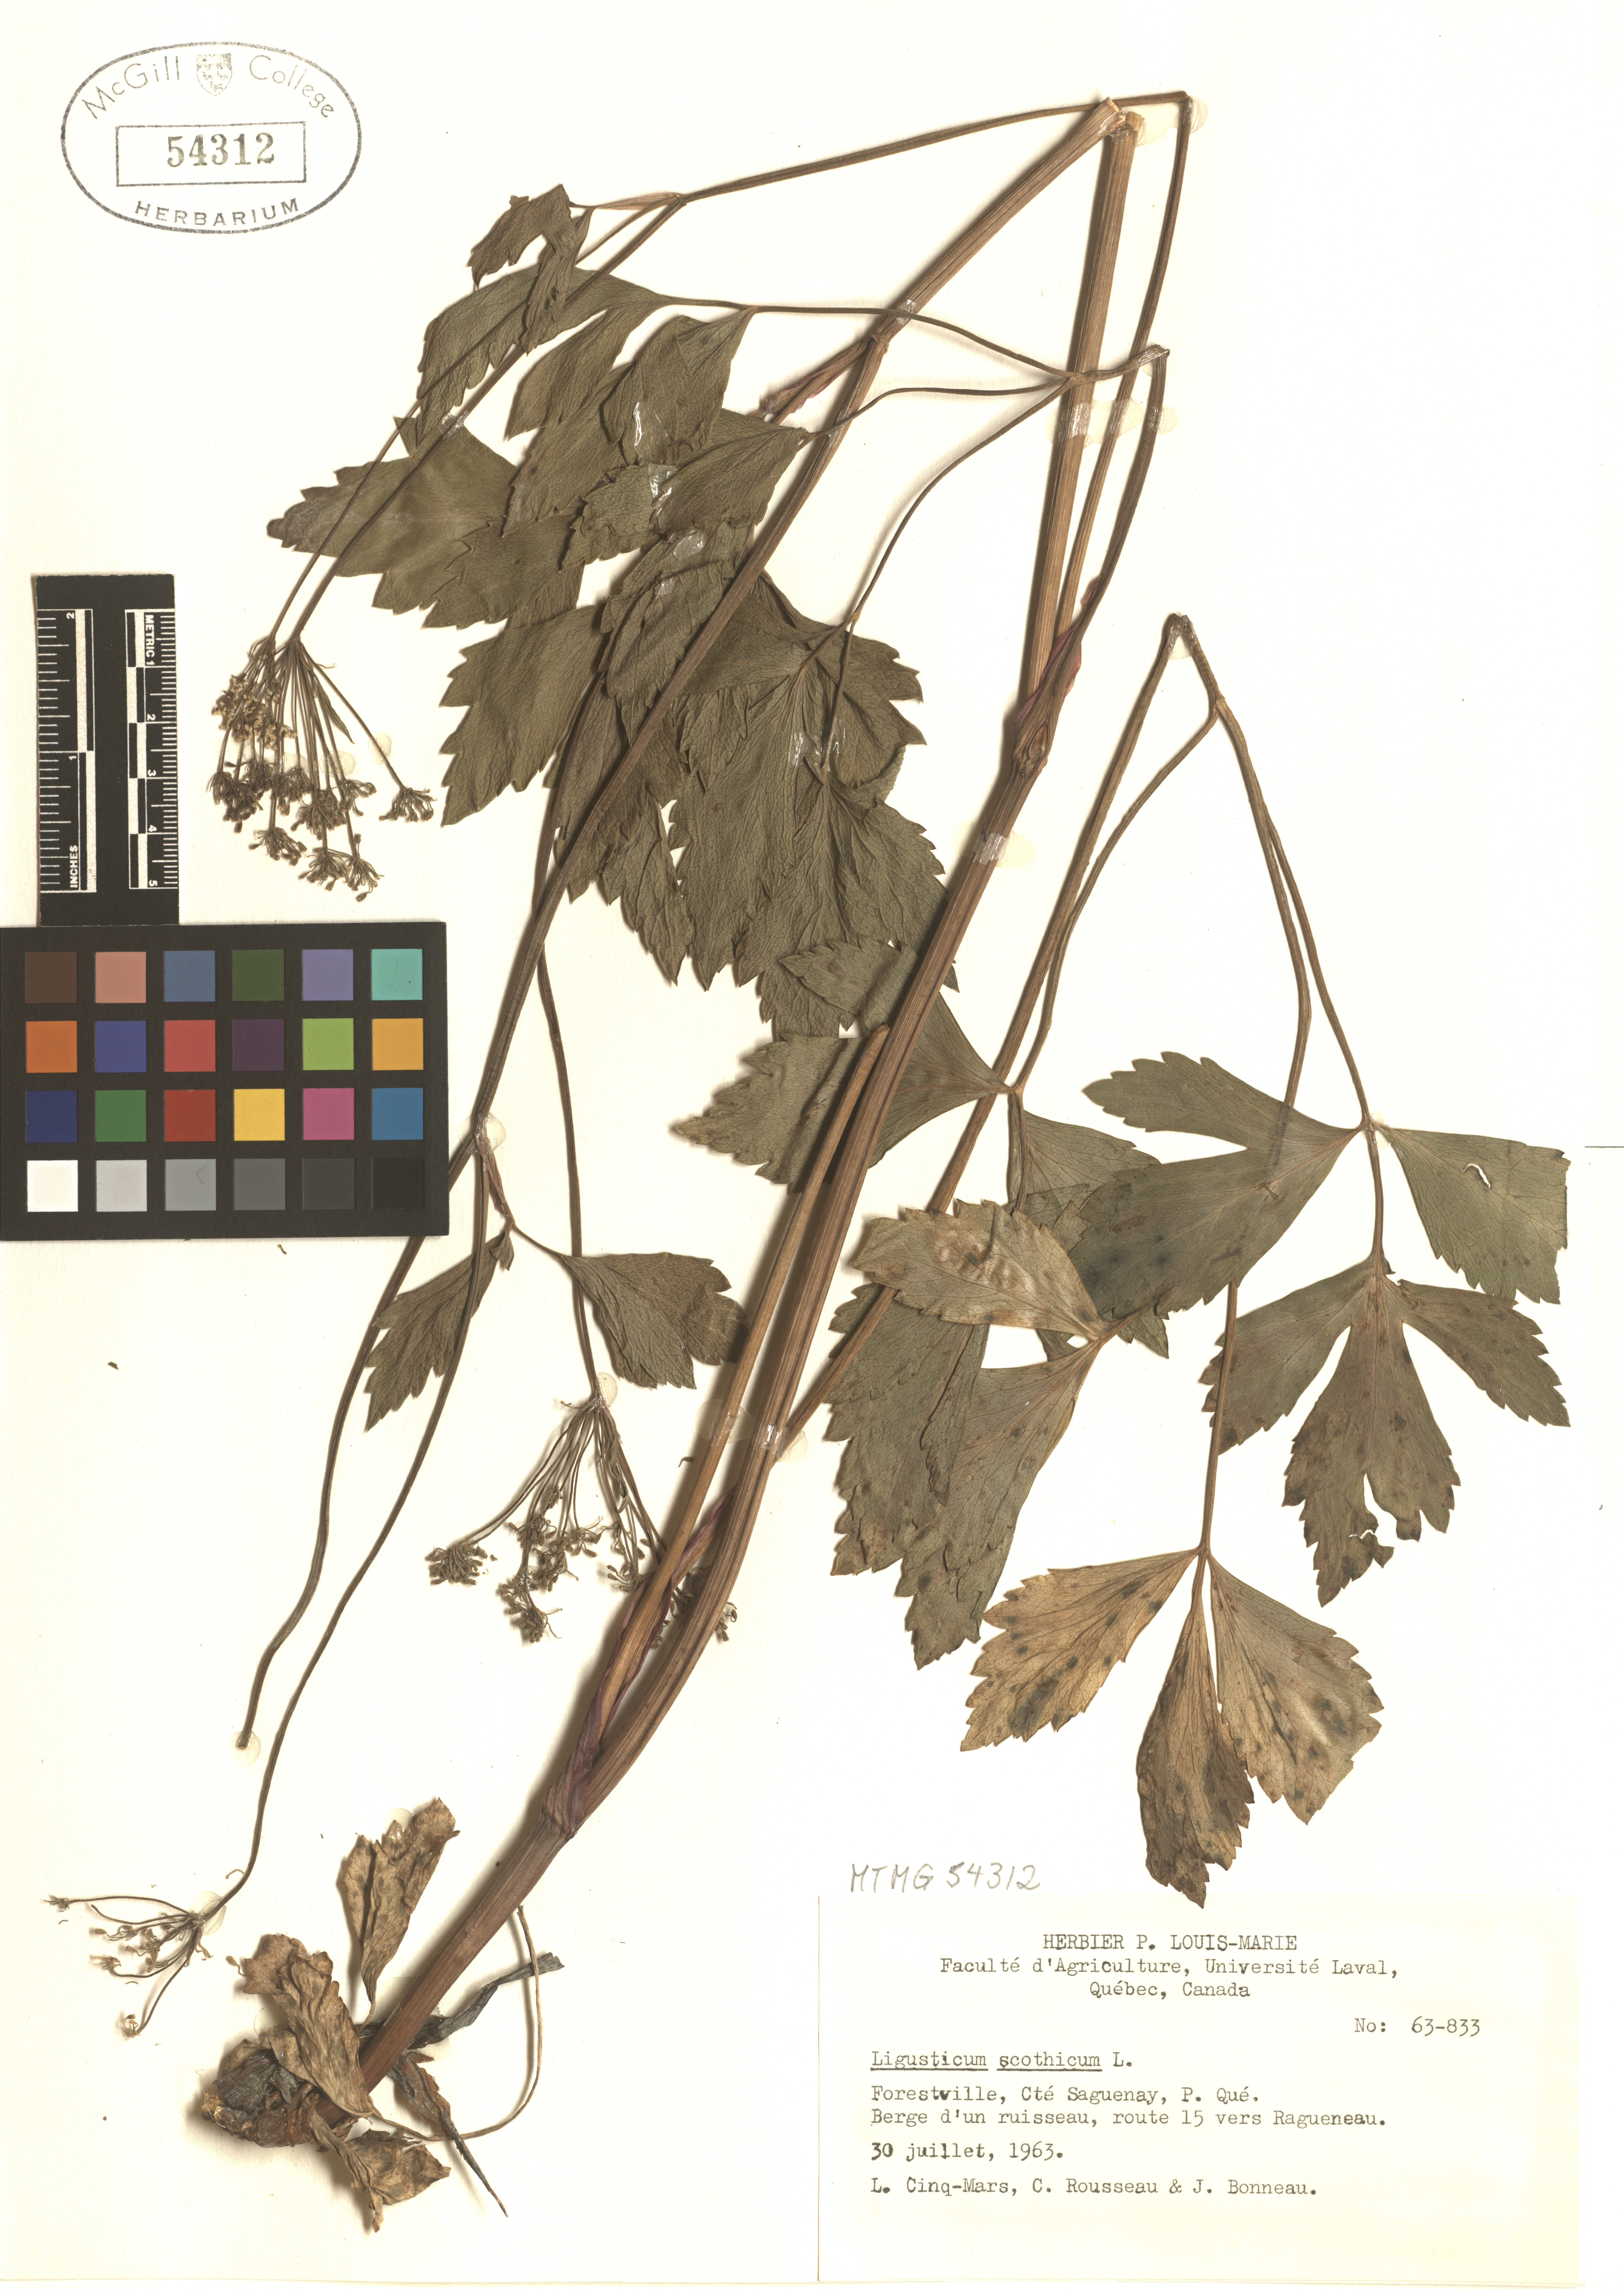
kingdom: Plantae
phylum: Tracheophyta
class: Magnoliopsida
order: Apiales
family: Apiaceae
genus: Ligusticum
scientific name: Ligusticum scoticum
